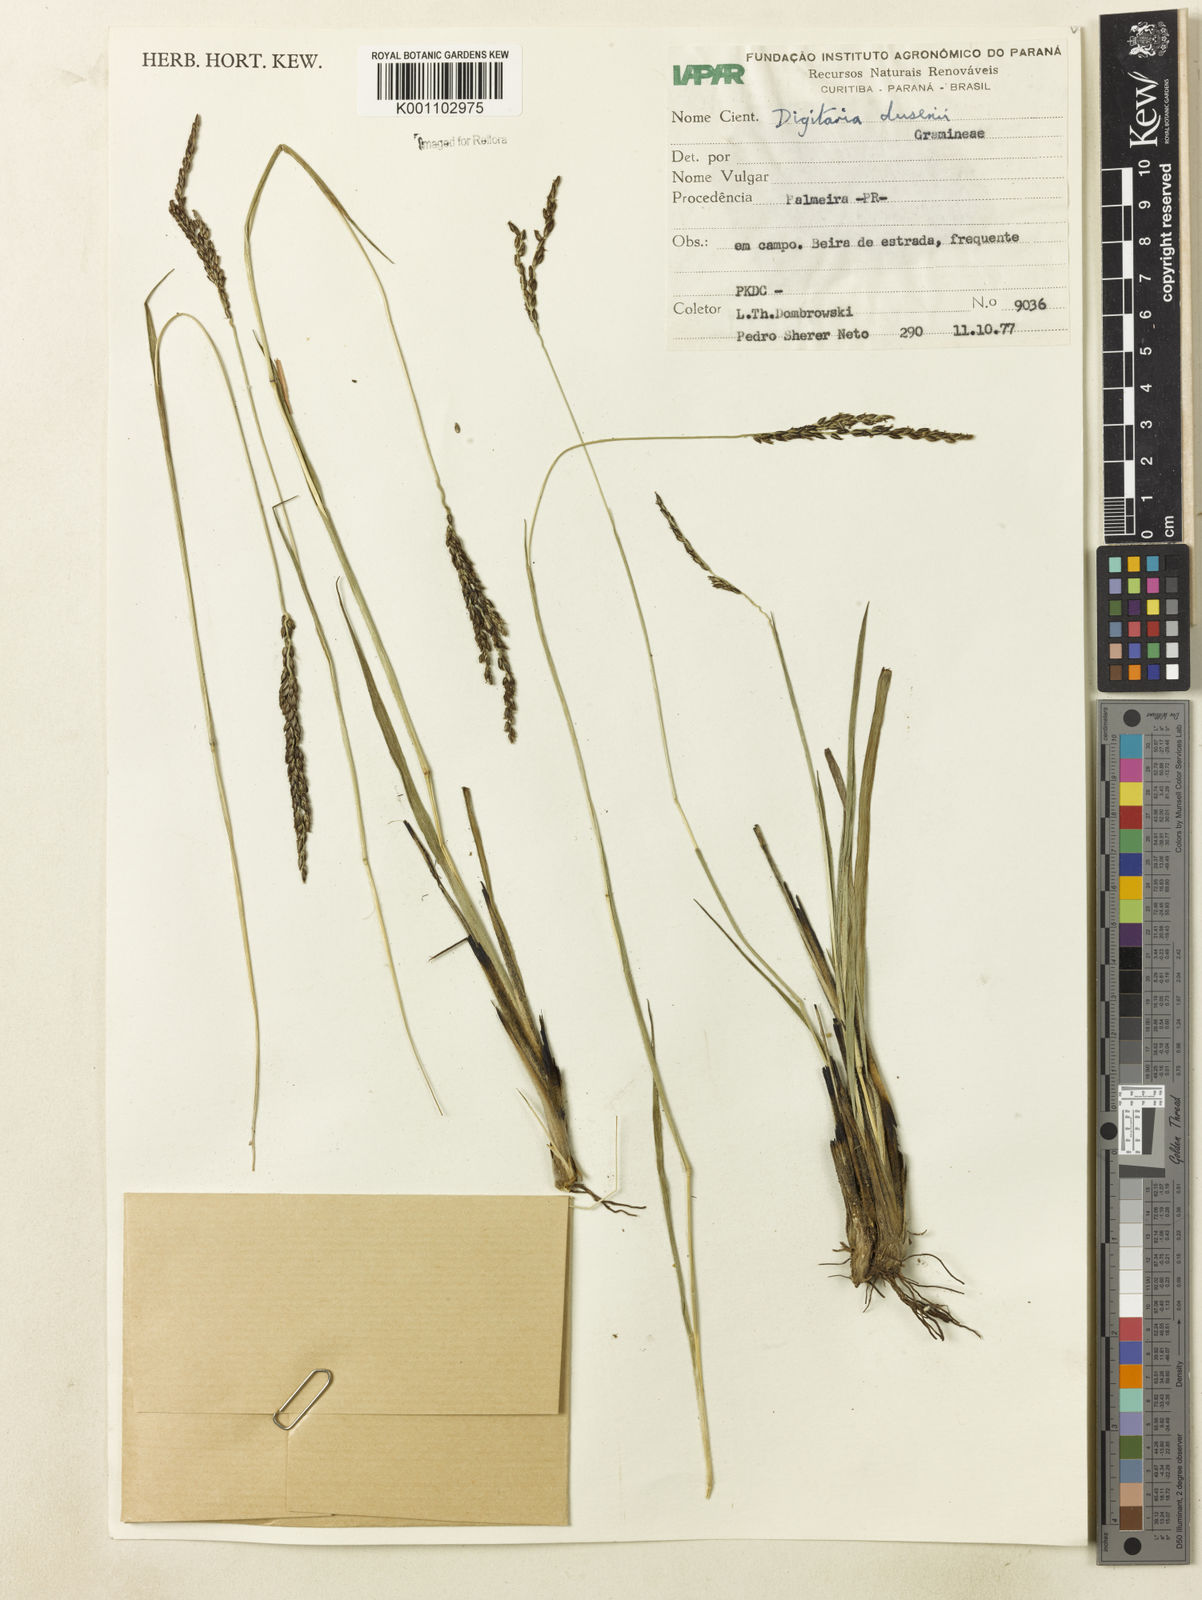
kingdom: Plantae
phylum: Tracheophyta
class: Liliopsida
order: Poales
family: Poaceae
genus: Digitaria
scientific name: Digitaria purpurea
